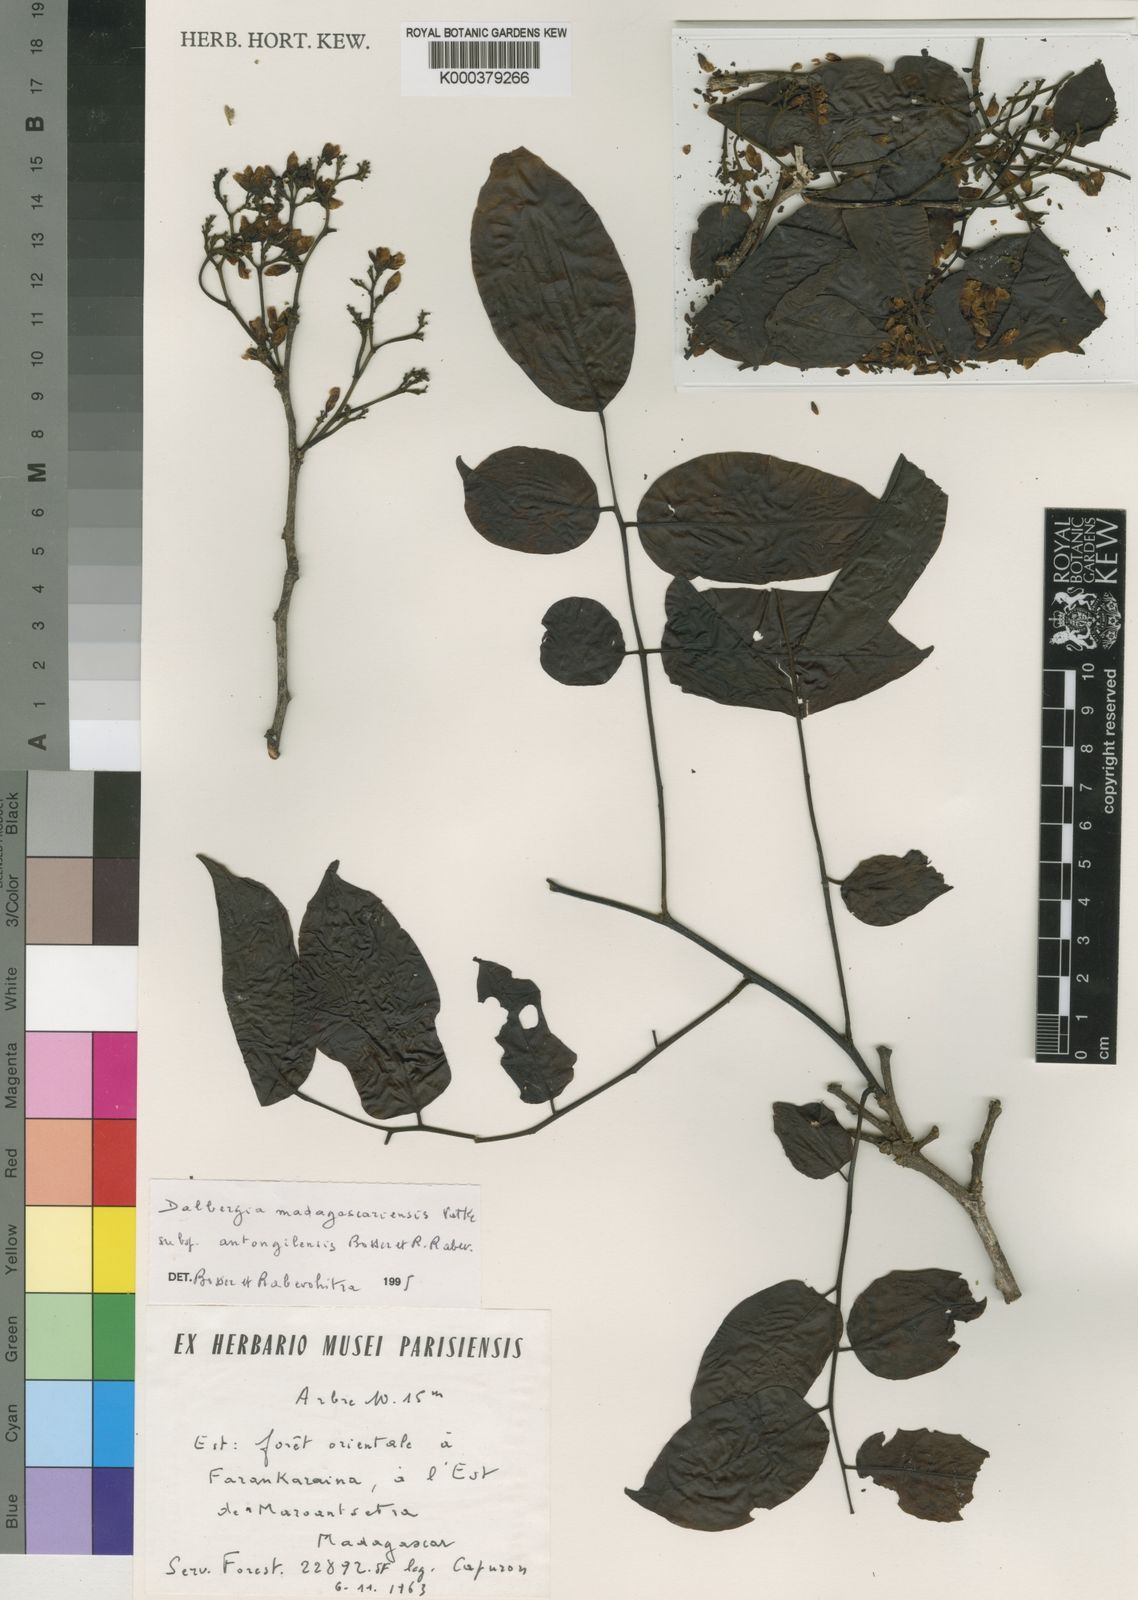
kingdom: Plantae
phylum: Tracheophyta
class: Magnoliopsida
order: Fabales
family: Fabaceae
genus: Dalbergia
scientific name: Dalbergia madagascariensis
